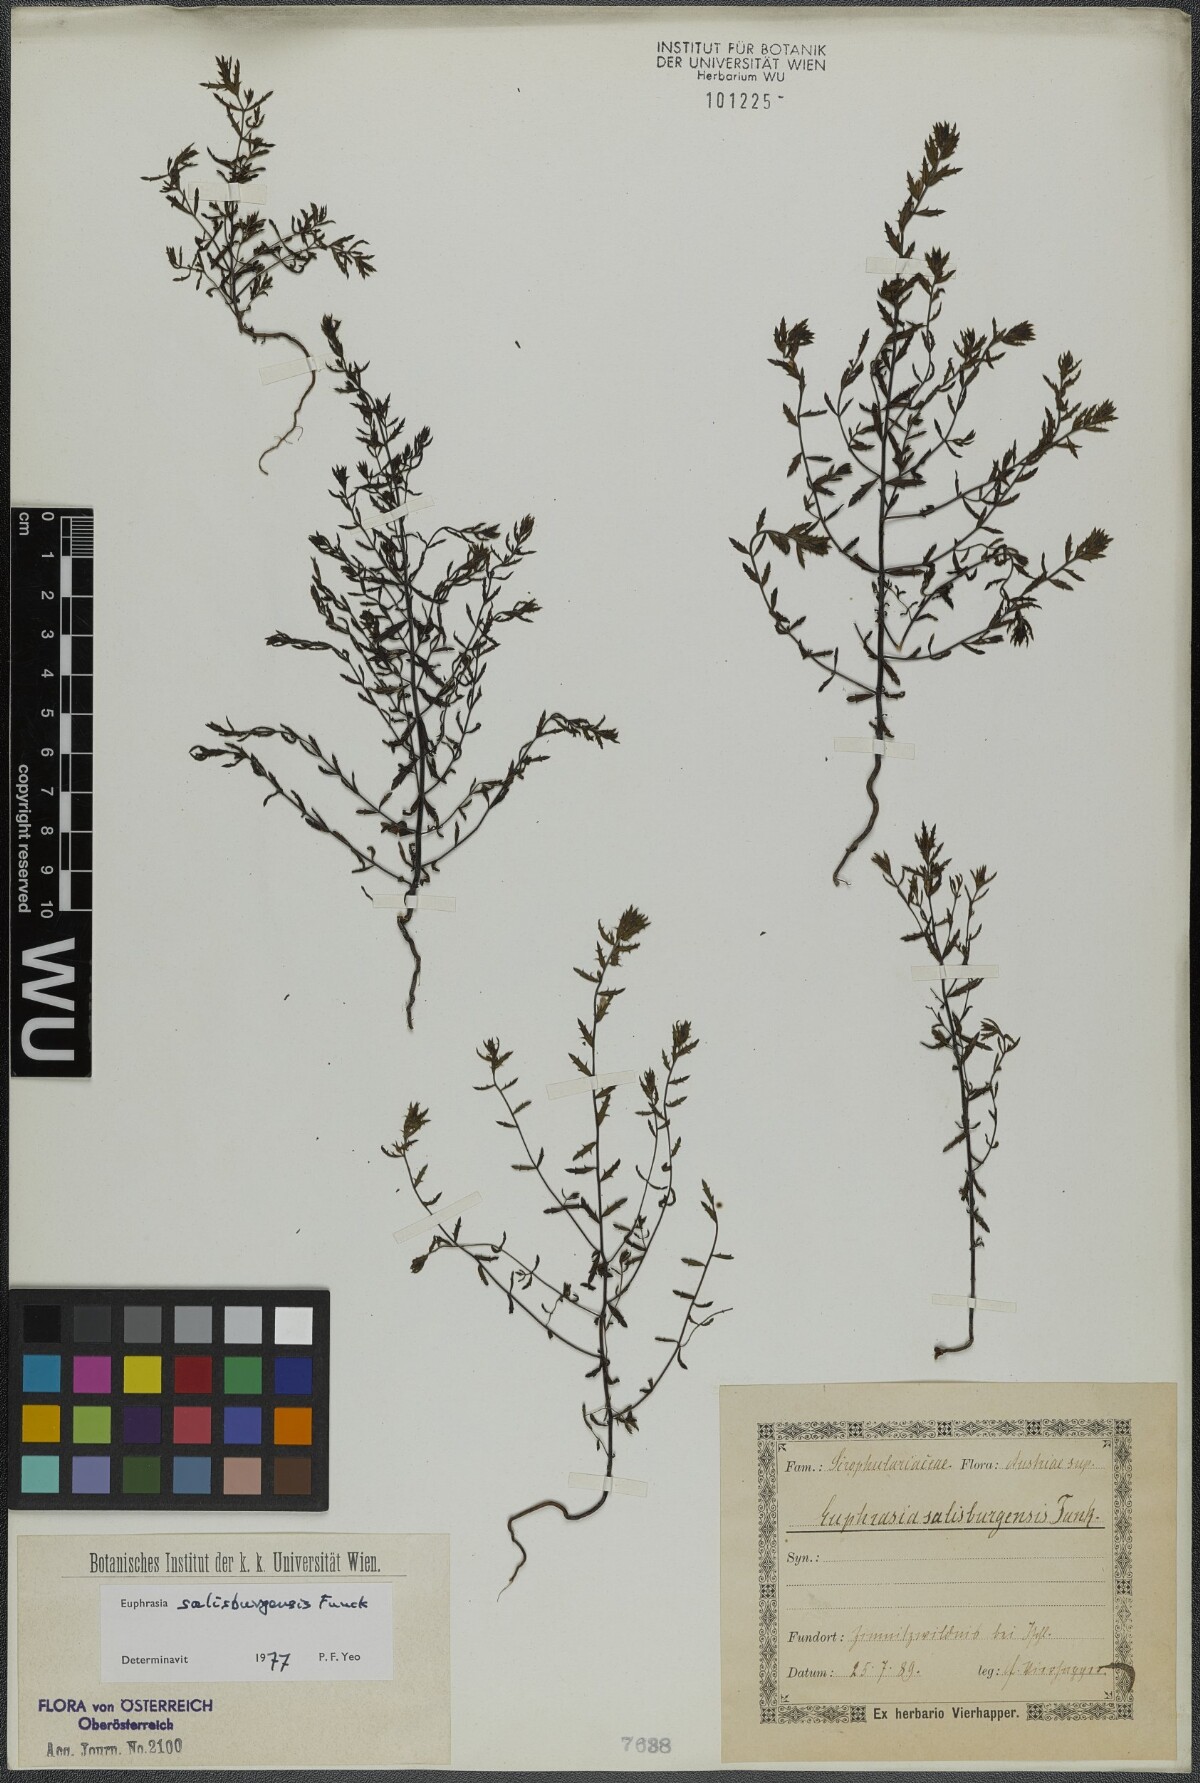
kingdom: Plantae
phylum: Tracheophyta
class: Magnoliopsida
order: Lamiales
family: Orobanchaceae
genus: Euphrasia
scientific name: Euphrasia salisburgensis
